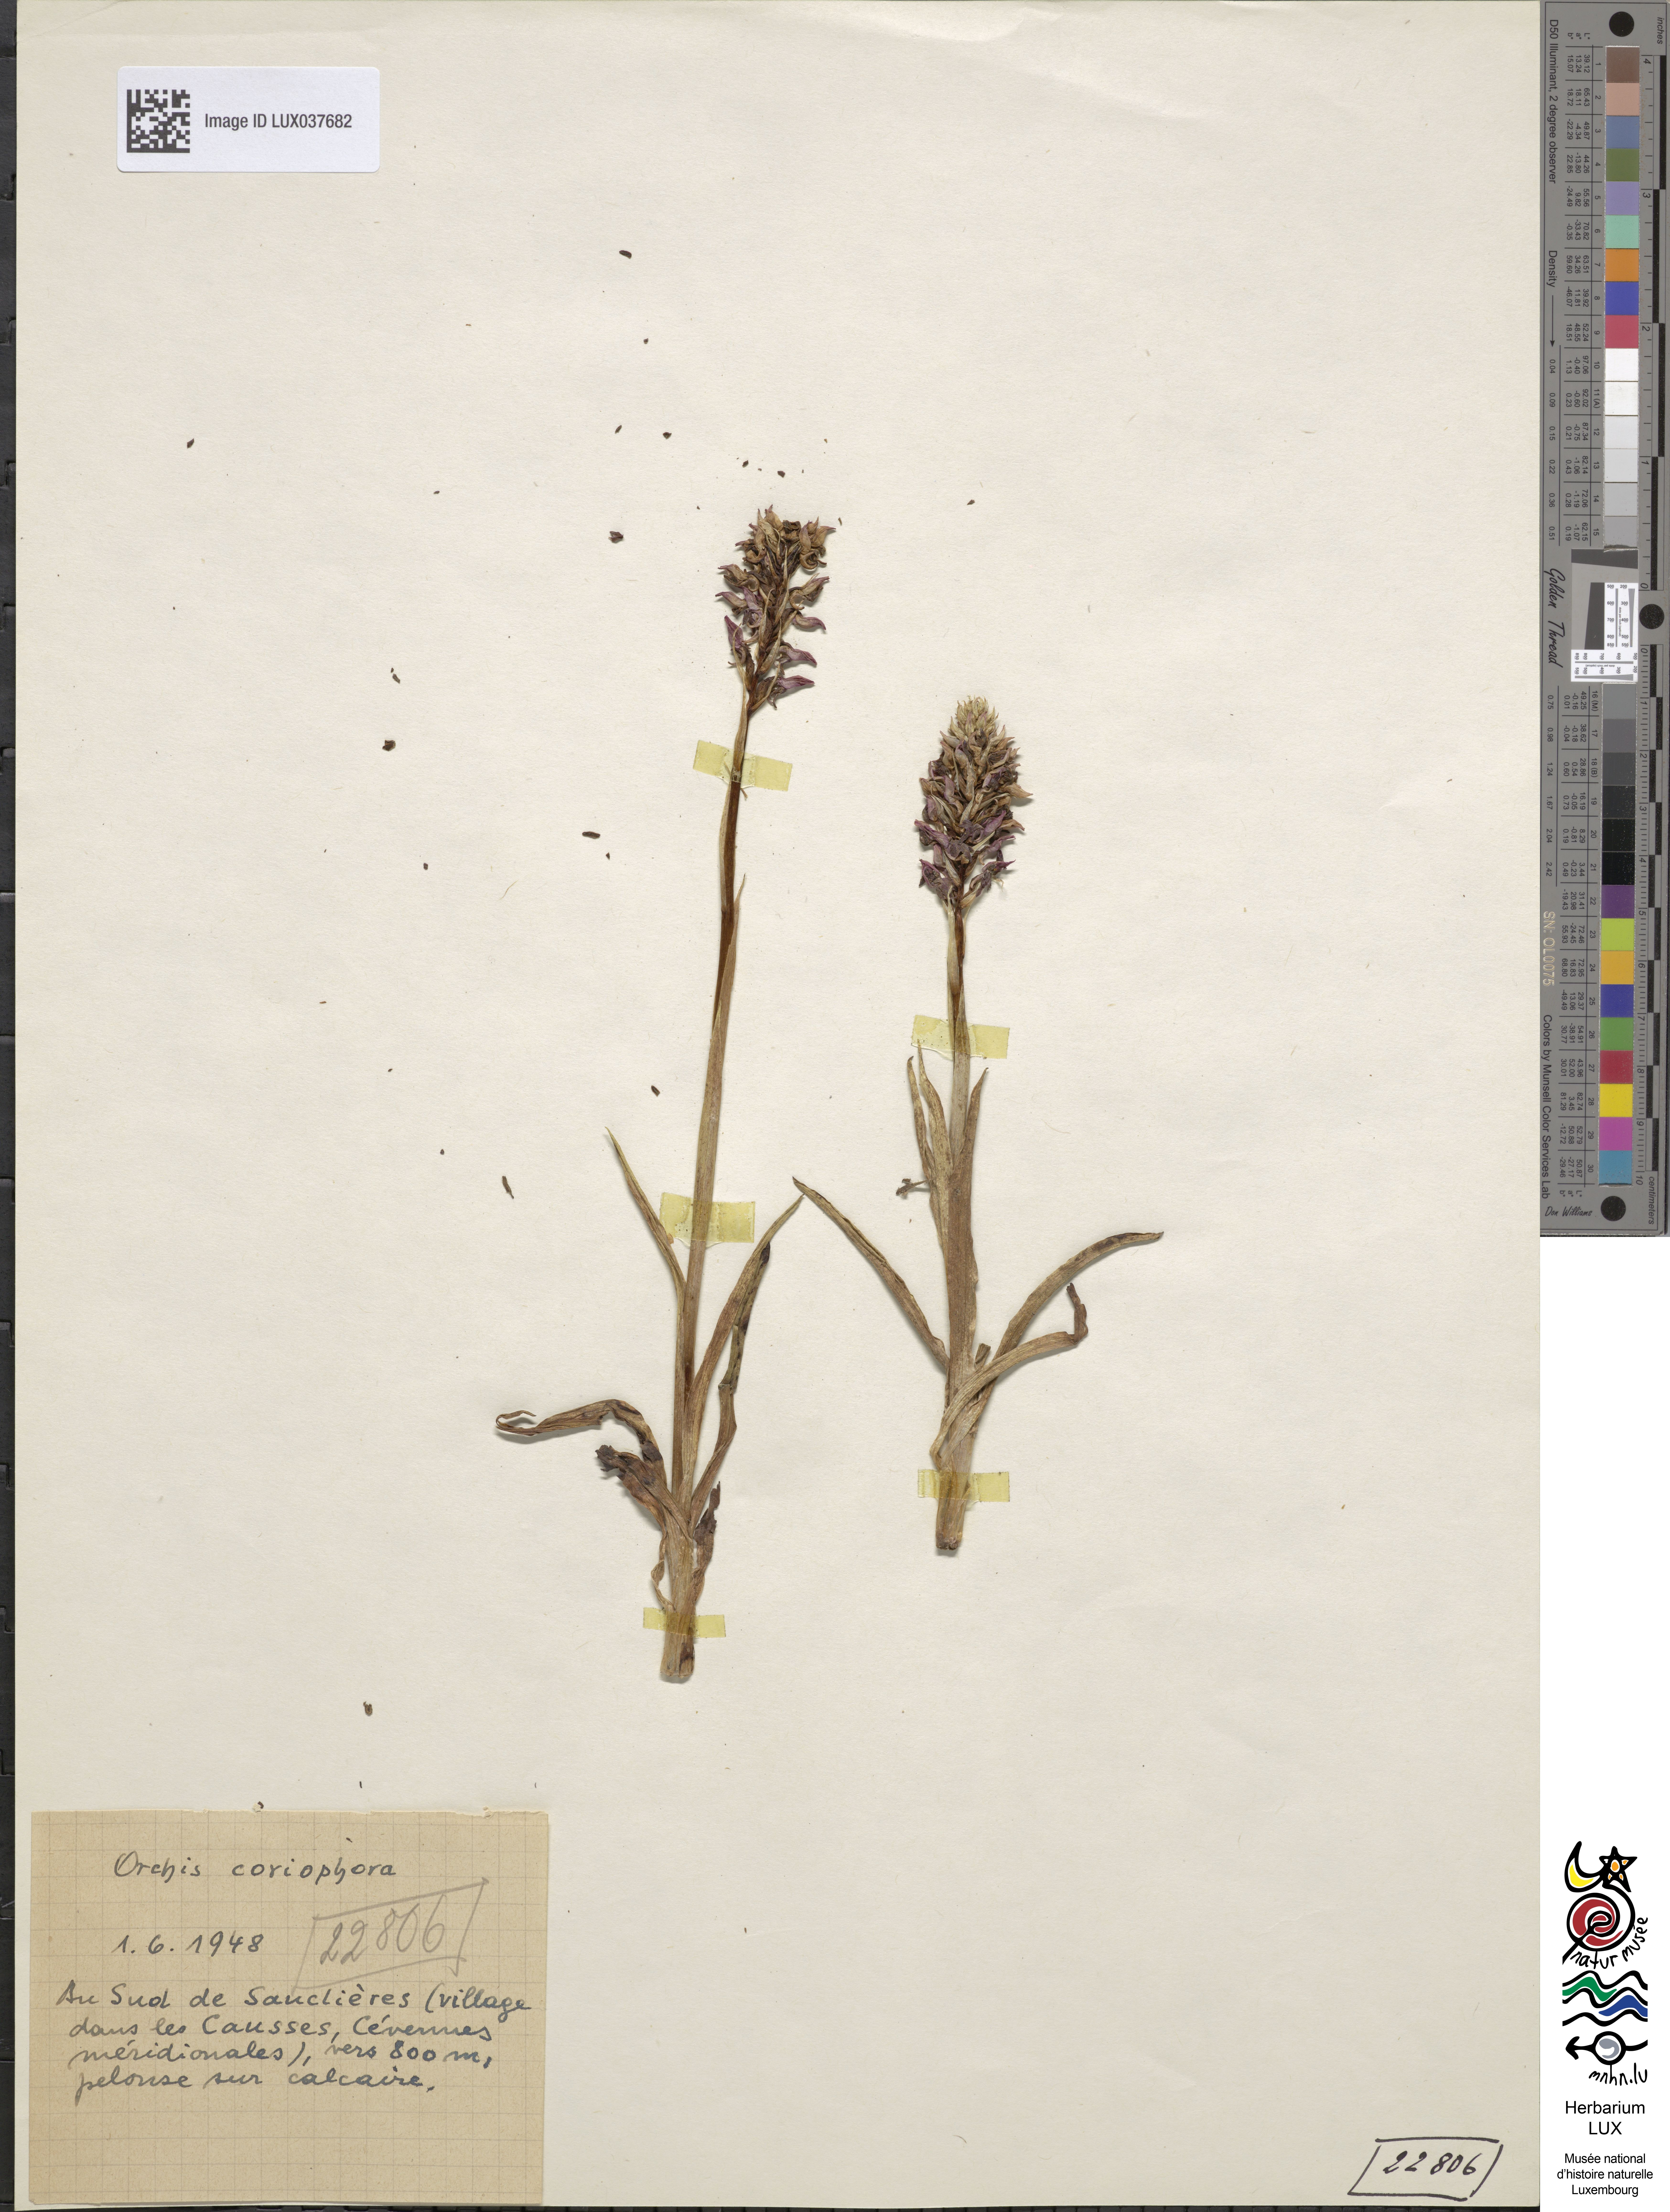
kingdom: Plantae
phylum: Tracheophyta
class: Liliopsida
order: Asparagales
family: Orchidaceae
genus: Anacamptis
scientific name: Anacamptis coriophora
